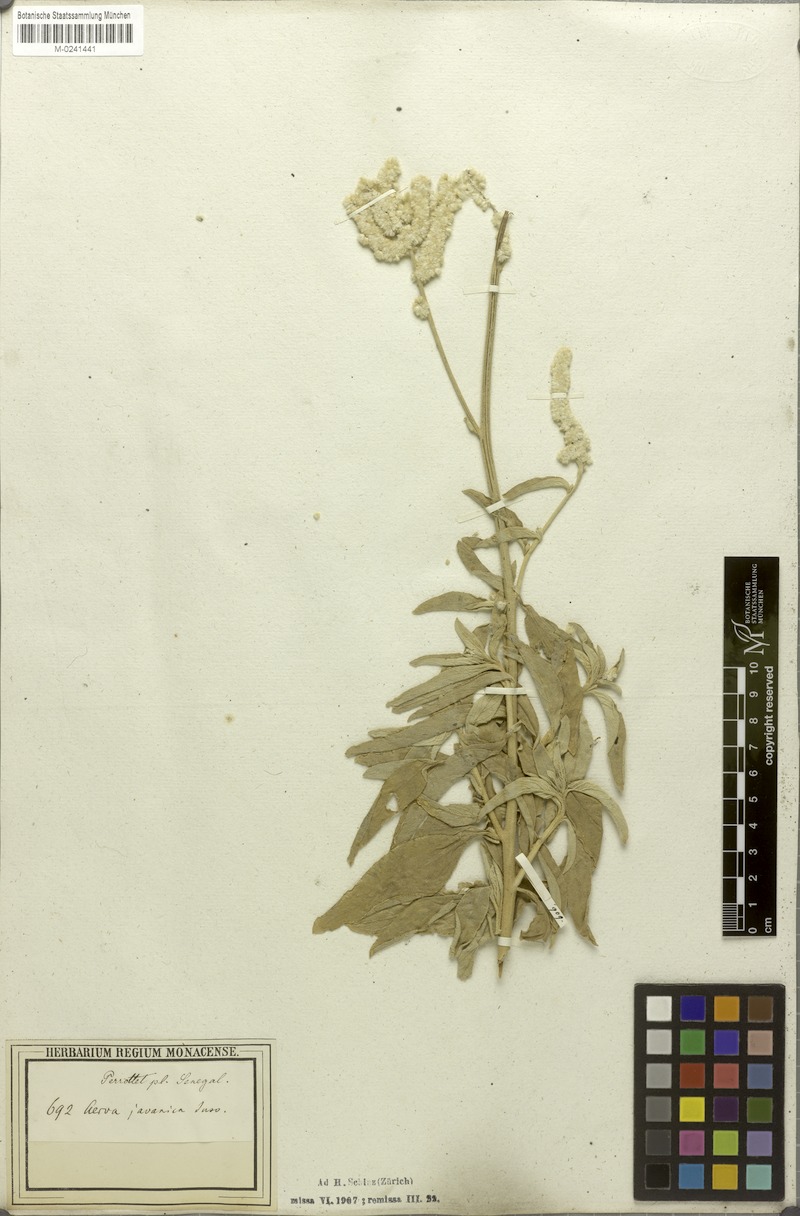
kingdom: Plantae
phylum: Tracheophyta
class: Magnoliopsida
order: Caryophyllales
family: Amaranthaceae
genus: Aerva
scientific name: Aerva javanica
